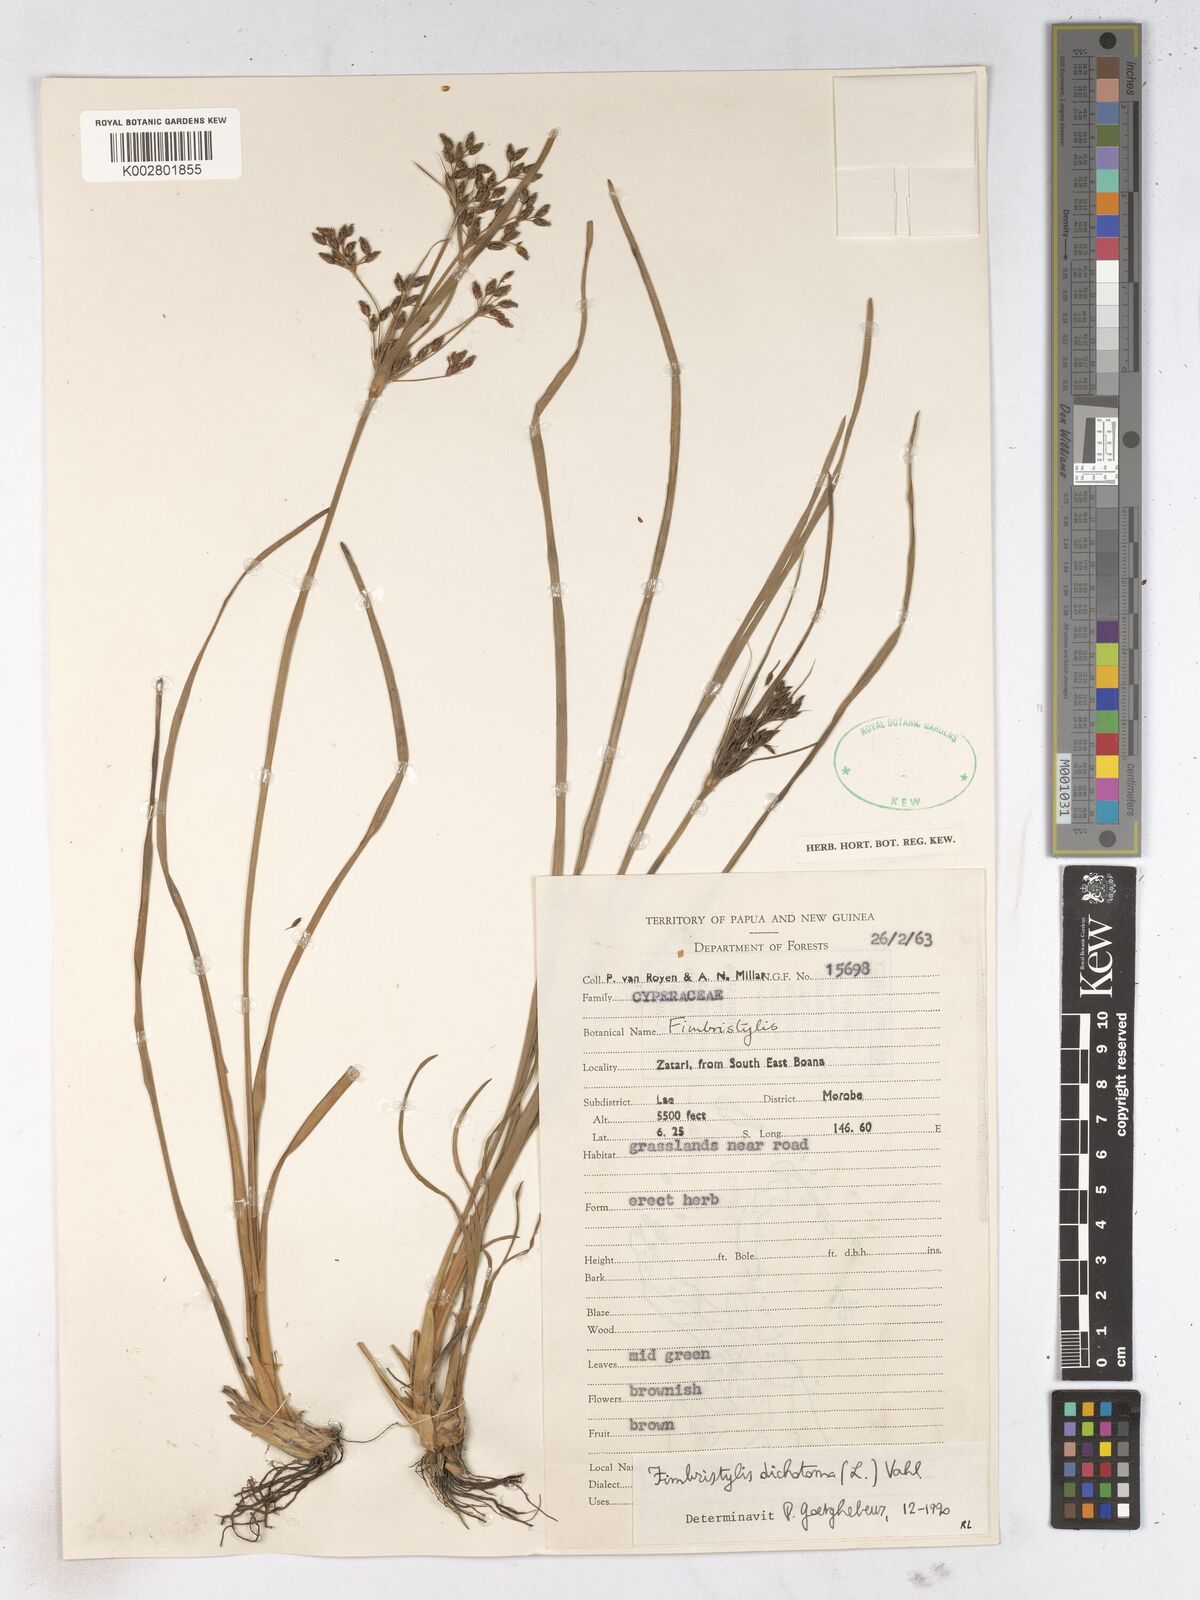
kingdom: Plantae
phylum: Tracheophyta
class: Liliopsida
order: Poales
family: Cyperaceae
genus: Fimbristylis
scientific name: Fimbristylis dichotoma
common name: Forked fimbry
